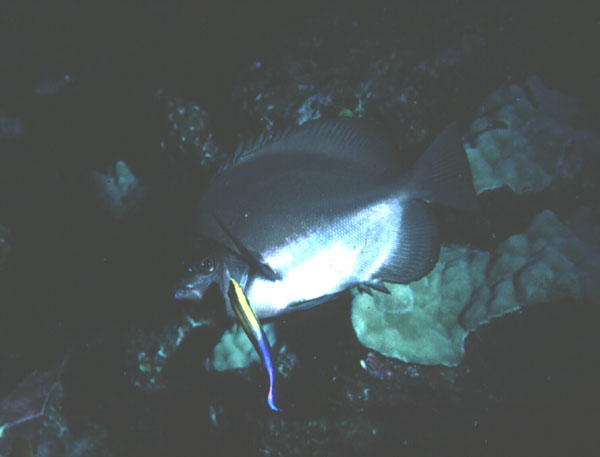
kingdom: Animalia
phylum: Chordata
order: Perciformes
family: Chaetodontidae
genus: Hemitaurichthys
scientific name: Hemitaurichthys zoster
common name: Brown-and-white butterflyfish
